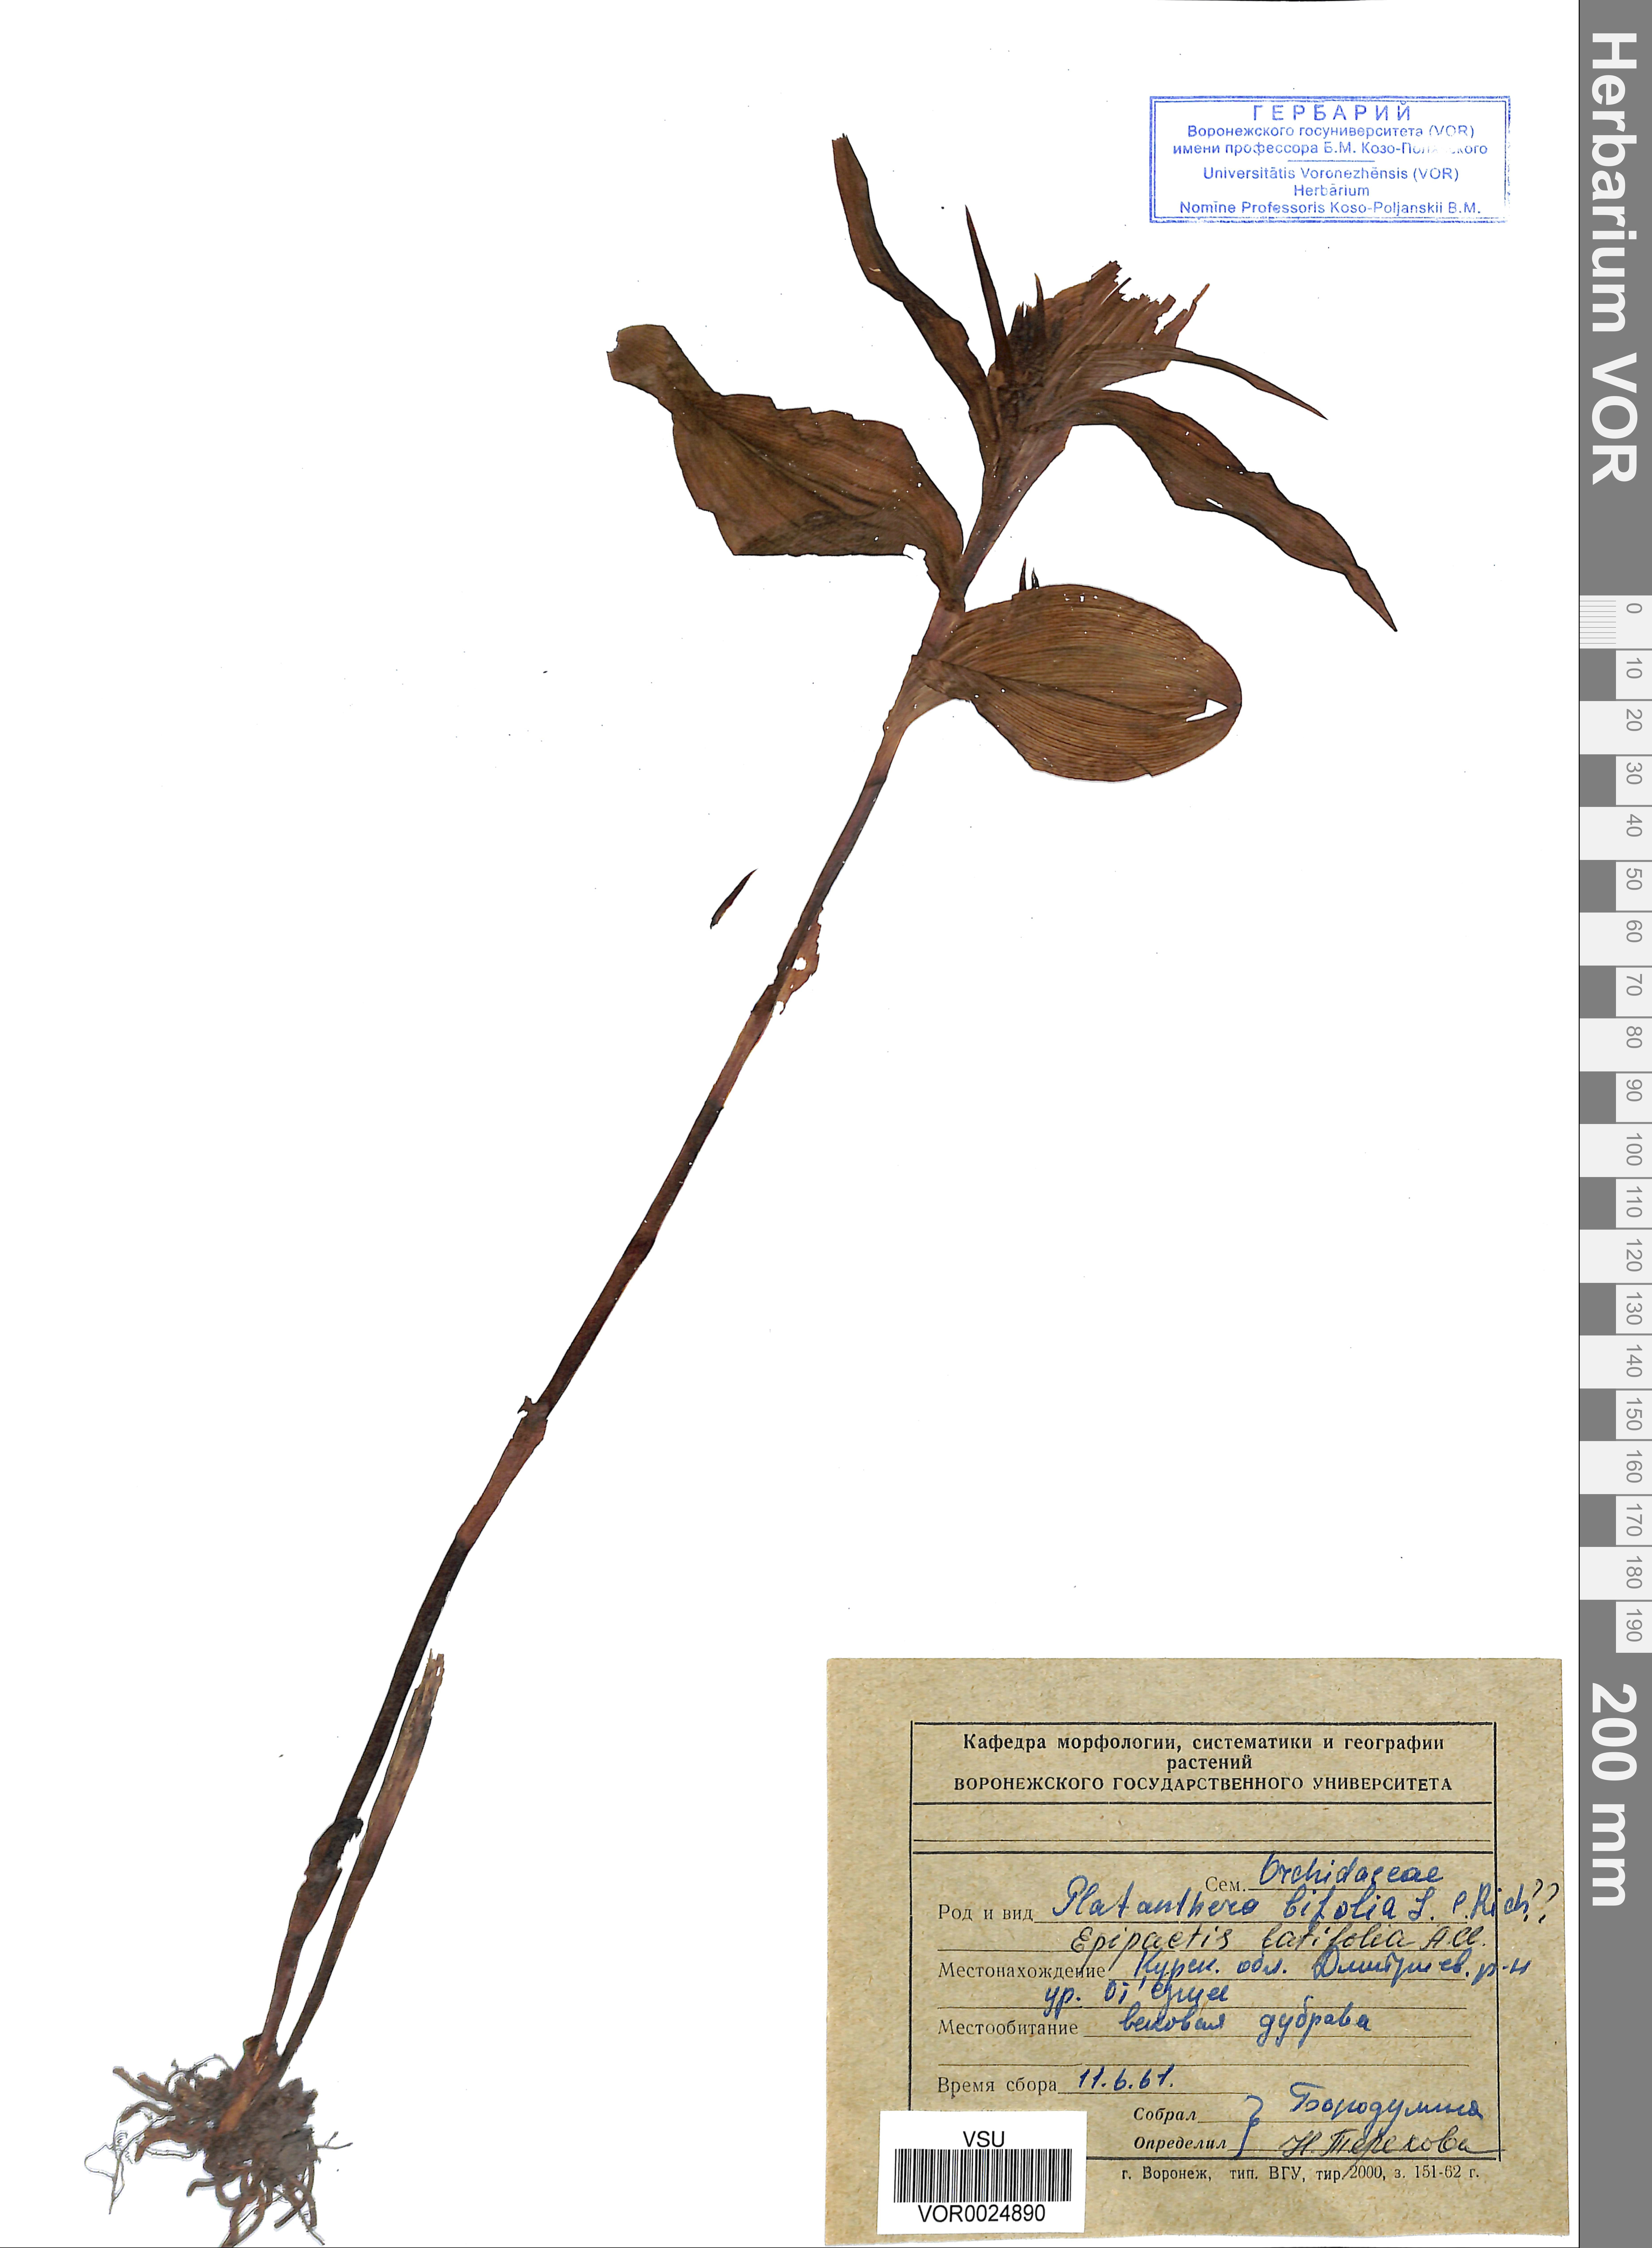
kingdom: Plantae
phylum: Tracheophyta
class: Liliopsida
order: Asparagales
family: Orchidaceae
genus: Epipactis
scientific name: Epipactis helleborine
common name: Broad-leaved helleborine
